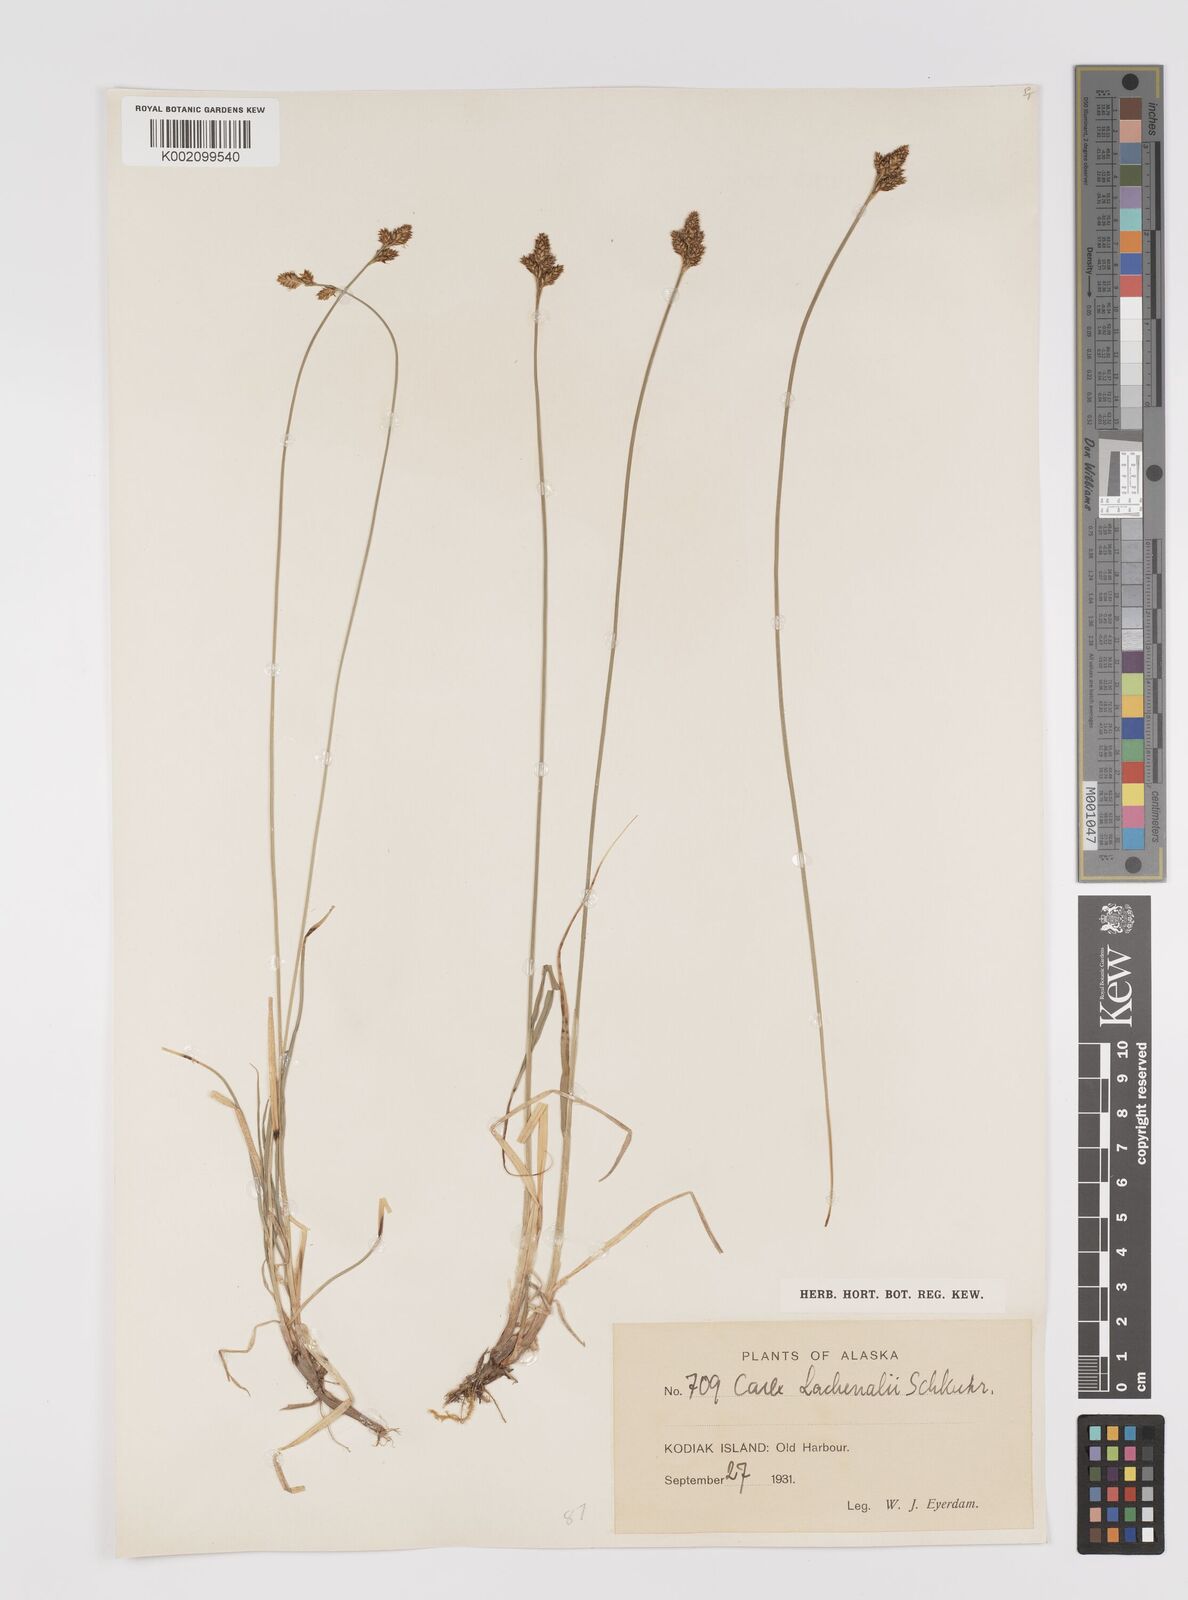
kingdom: Plantae
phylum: Tracheophyta
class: Liliopsida
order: Poales
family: Cyperaceae
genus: Carex
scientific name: Carex lachenalii
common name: Hare's-foot sedge
